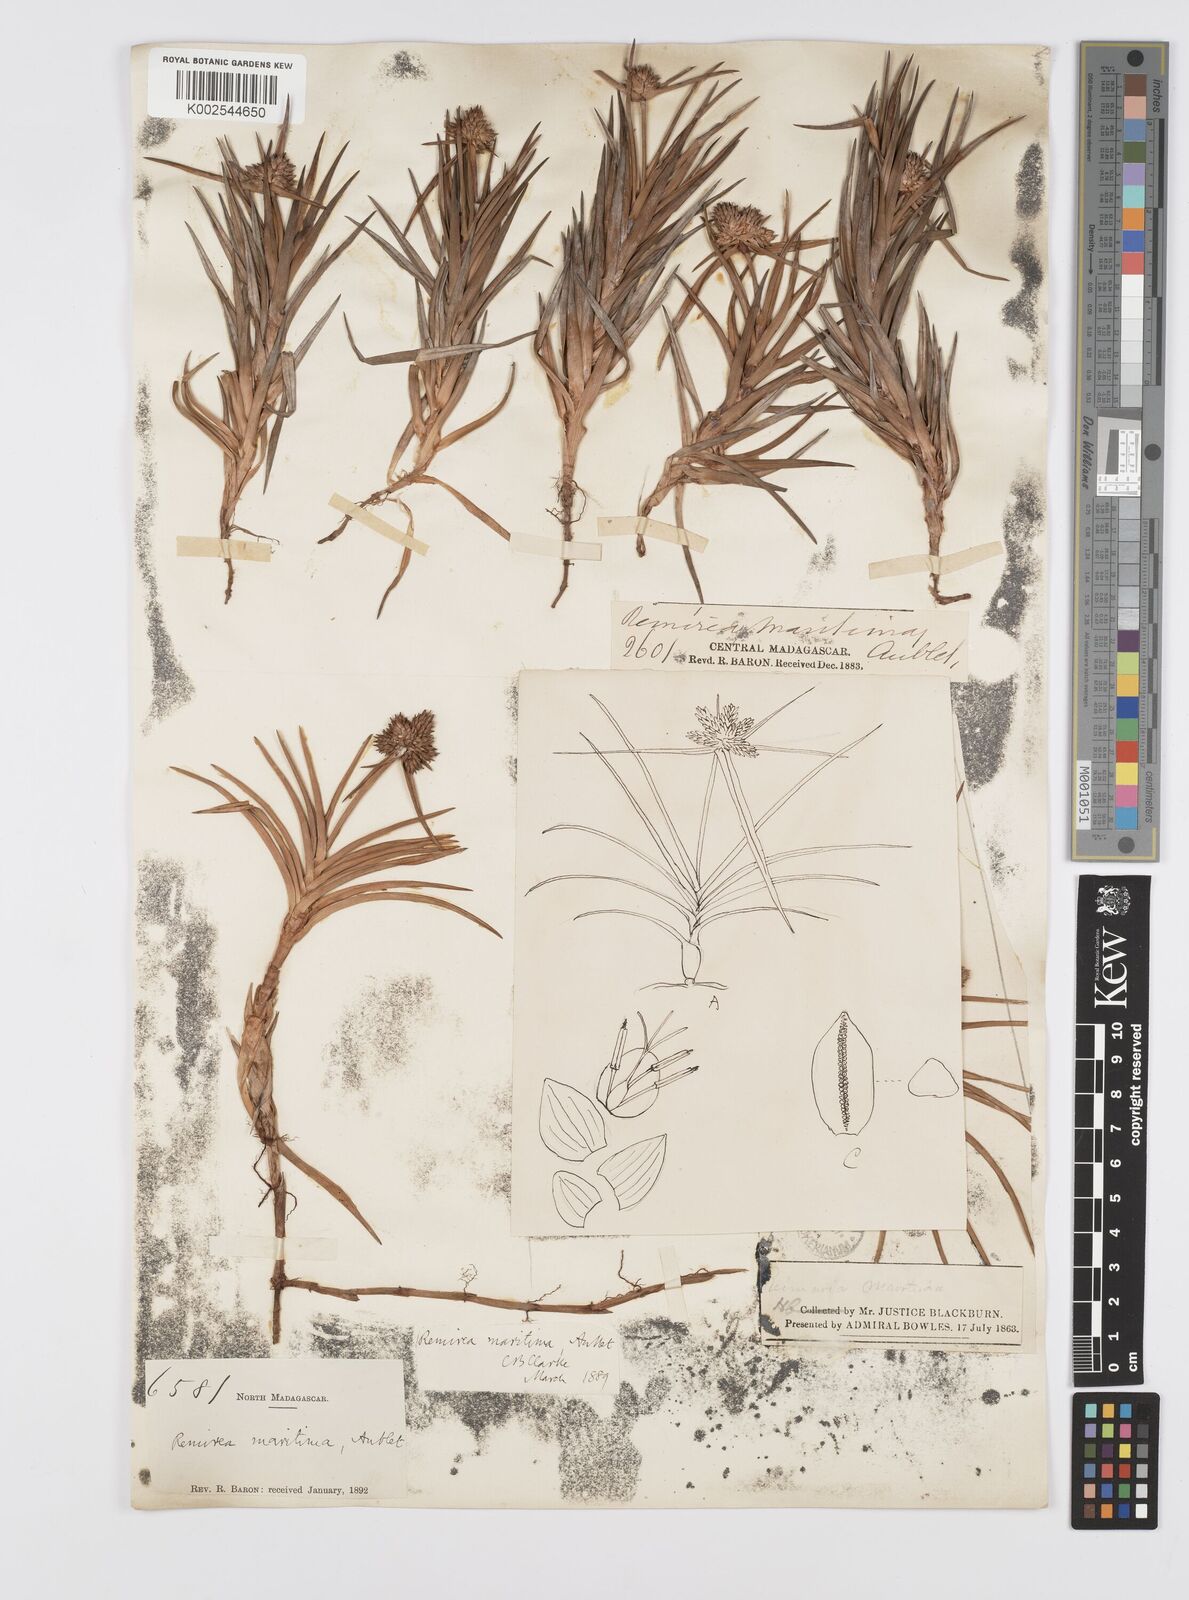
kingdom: Plantae
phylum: Tracheophyta
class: Liliopsida
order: Poales
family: Cyperaceae
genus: Cyperus
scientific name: Cyperus
